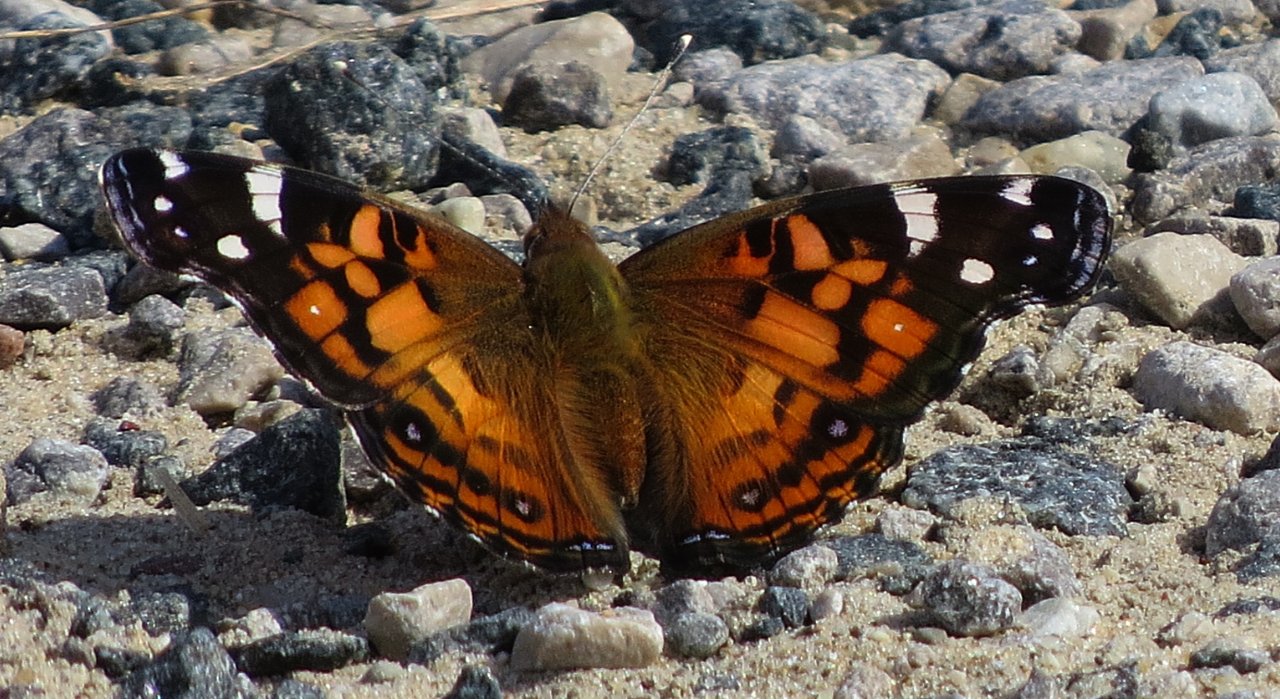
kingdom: Animalia
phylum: Arthropoda
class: Insecta
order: Lepidoptera
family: Nymphalidae
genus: Vanessa
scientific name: Vanessa virginiensis
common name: American Lady
